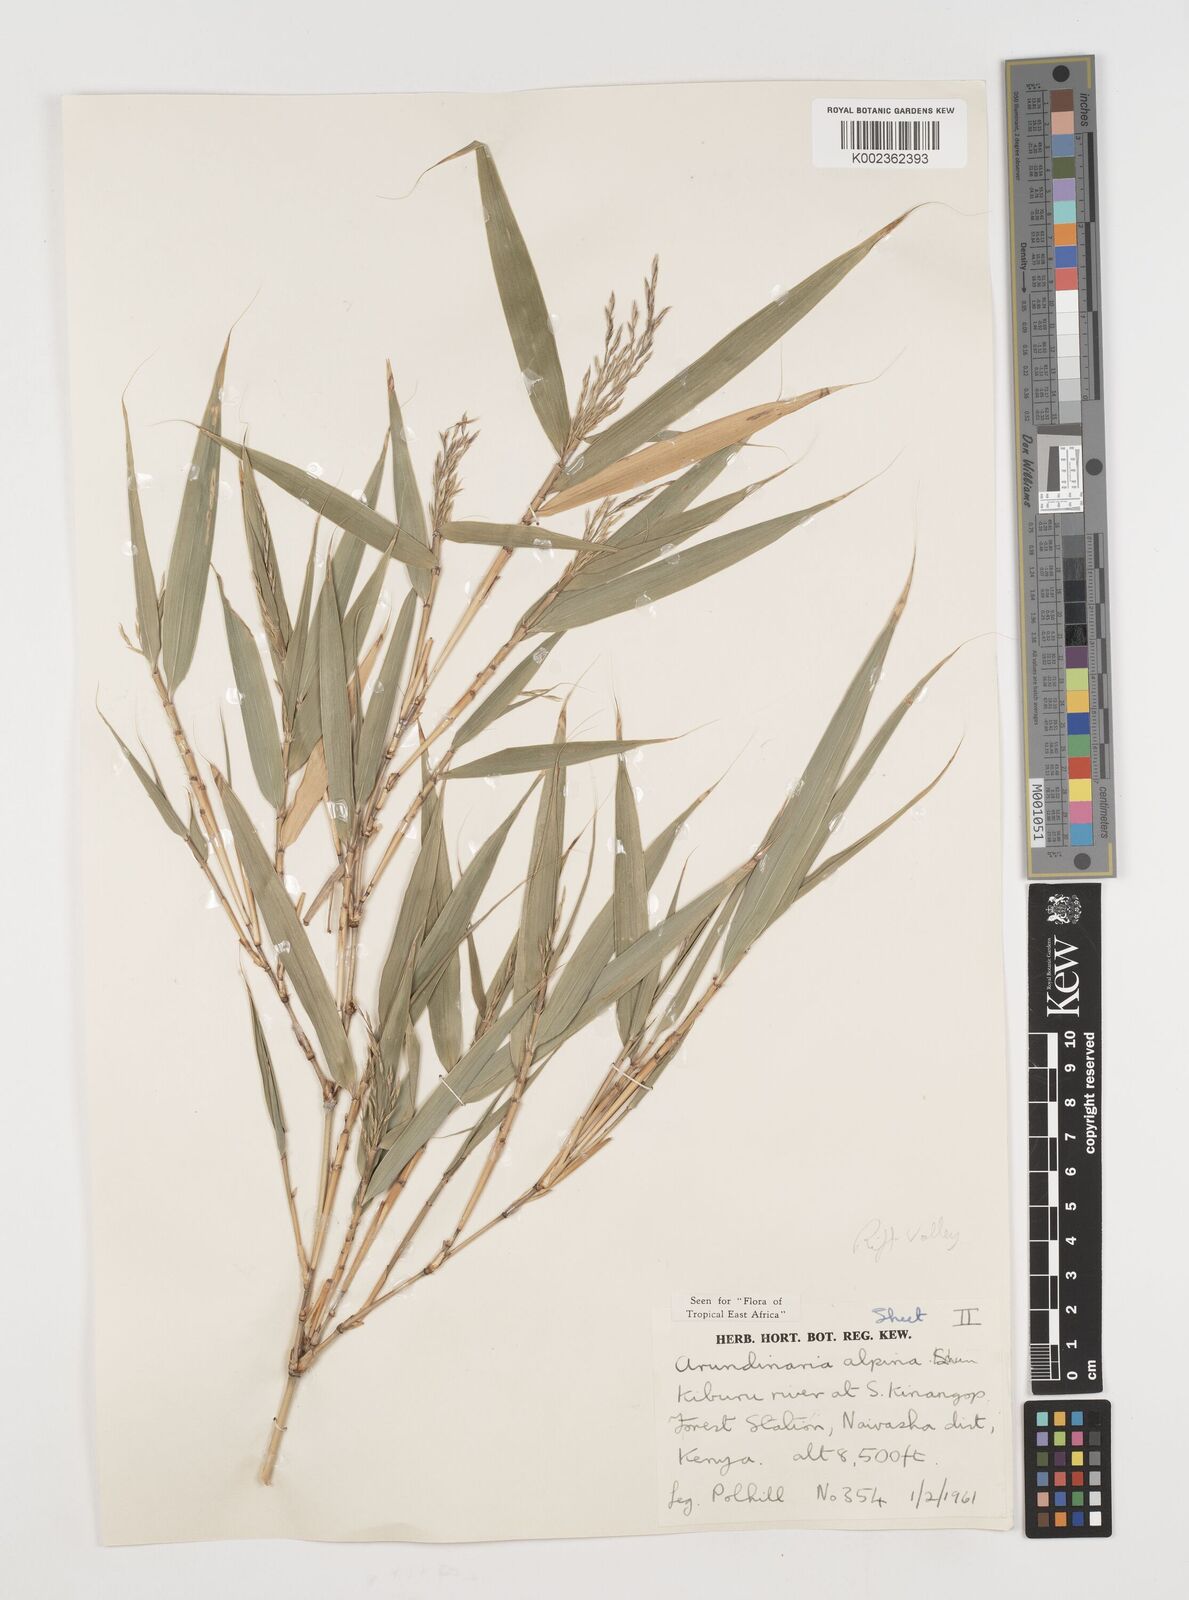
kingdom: Plantae
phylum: Tracheophyta
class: Liliopsida
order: Poales
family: Poaceae
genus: Oldeania
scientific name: Oldeania alpina
